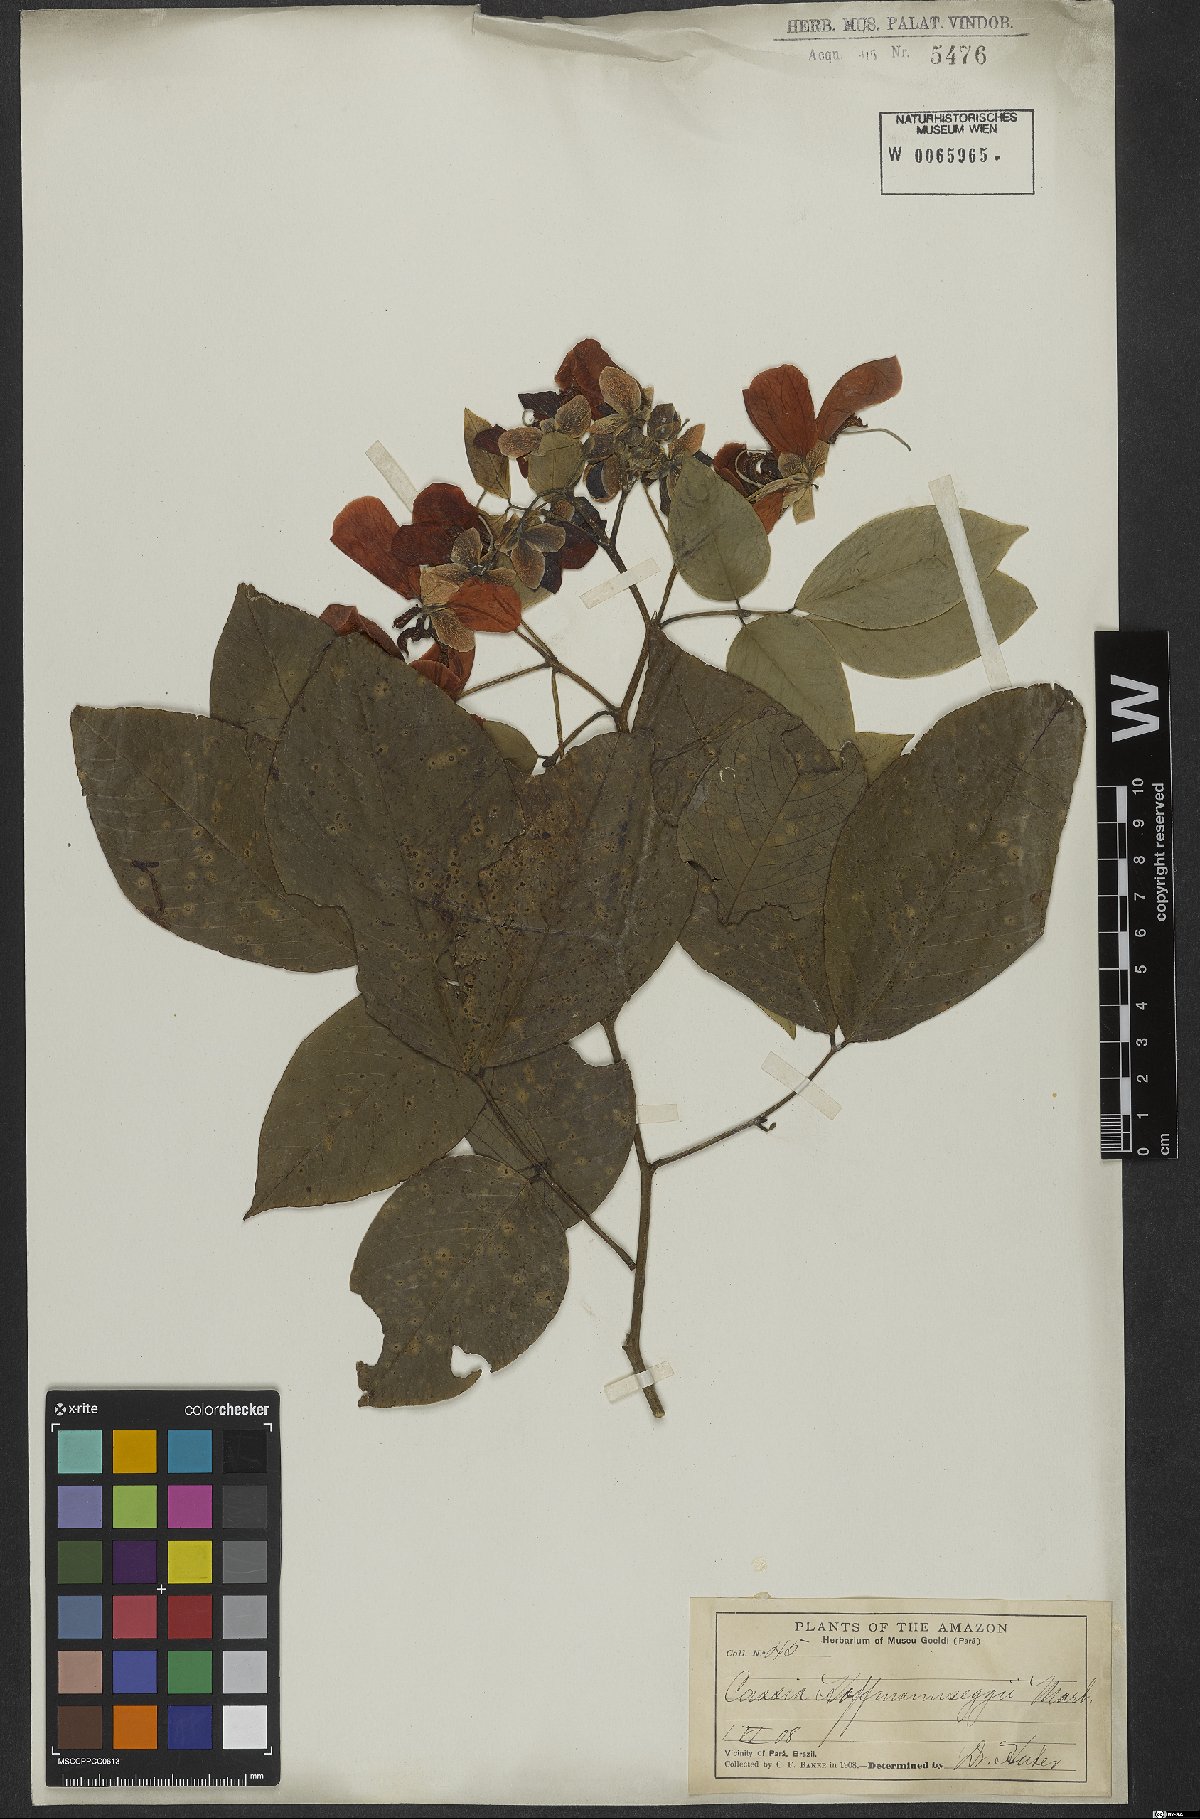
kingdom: Plantae
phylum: Tracheophyta
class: Magnoliopsida
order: Fabales
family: Fabaceae
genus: Senna
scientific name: Senna latifolia
